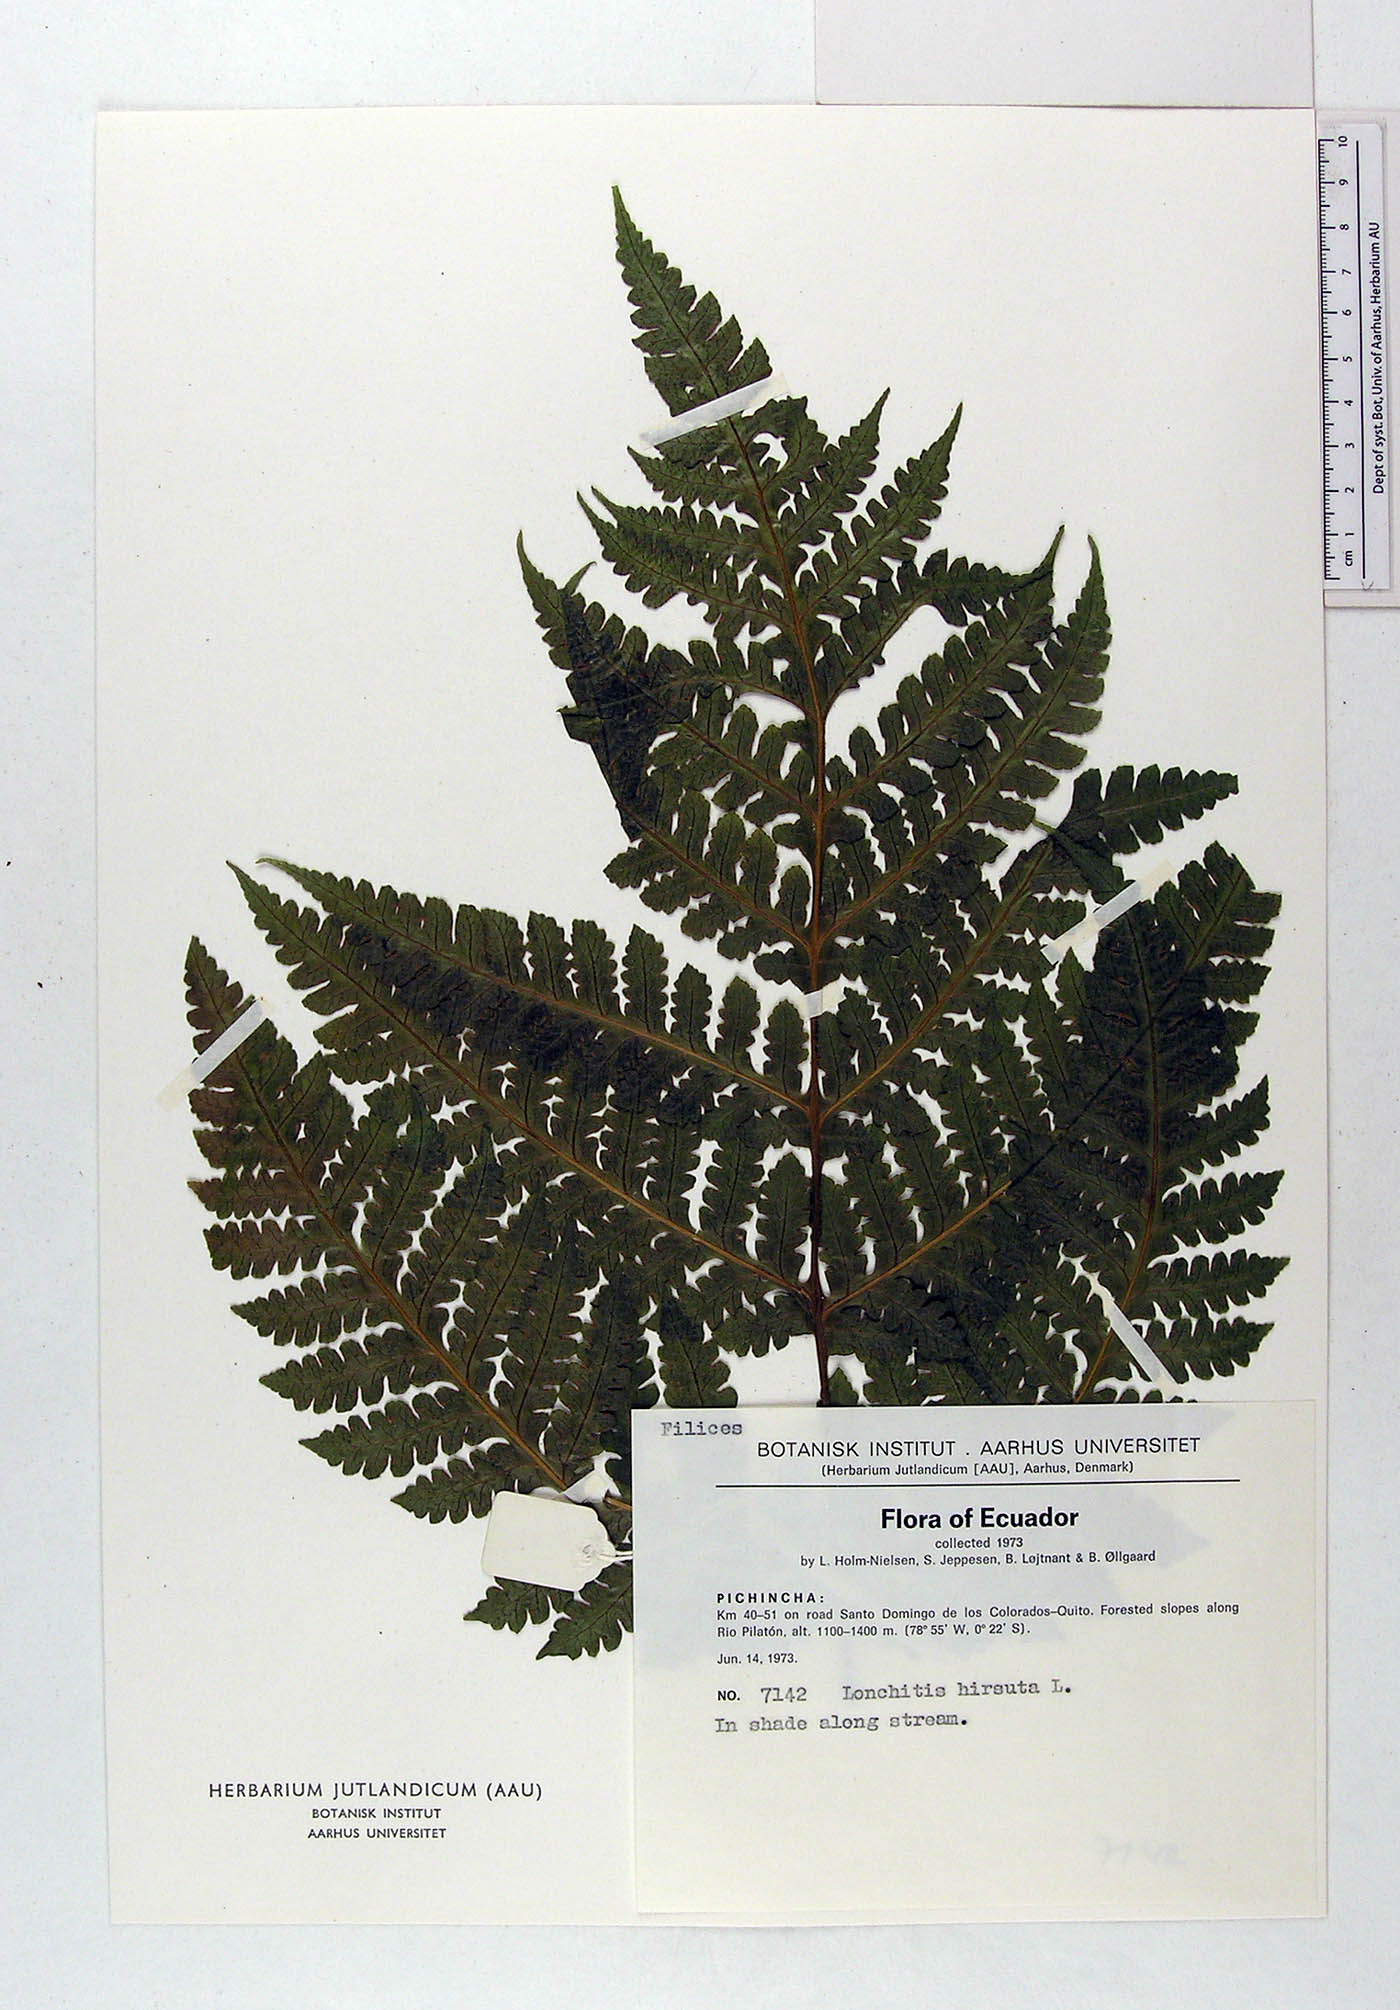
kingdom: Plantae
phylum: Tracheophyta
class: Polypodiopsida
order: Polypodiales
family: Lonchitidaceae
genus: Lonchitis
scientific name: Lonchitis hirsuta
